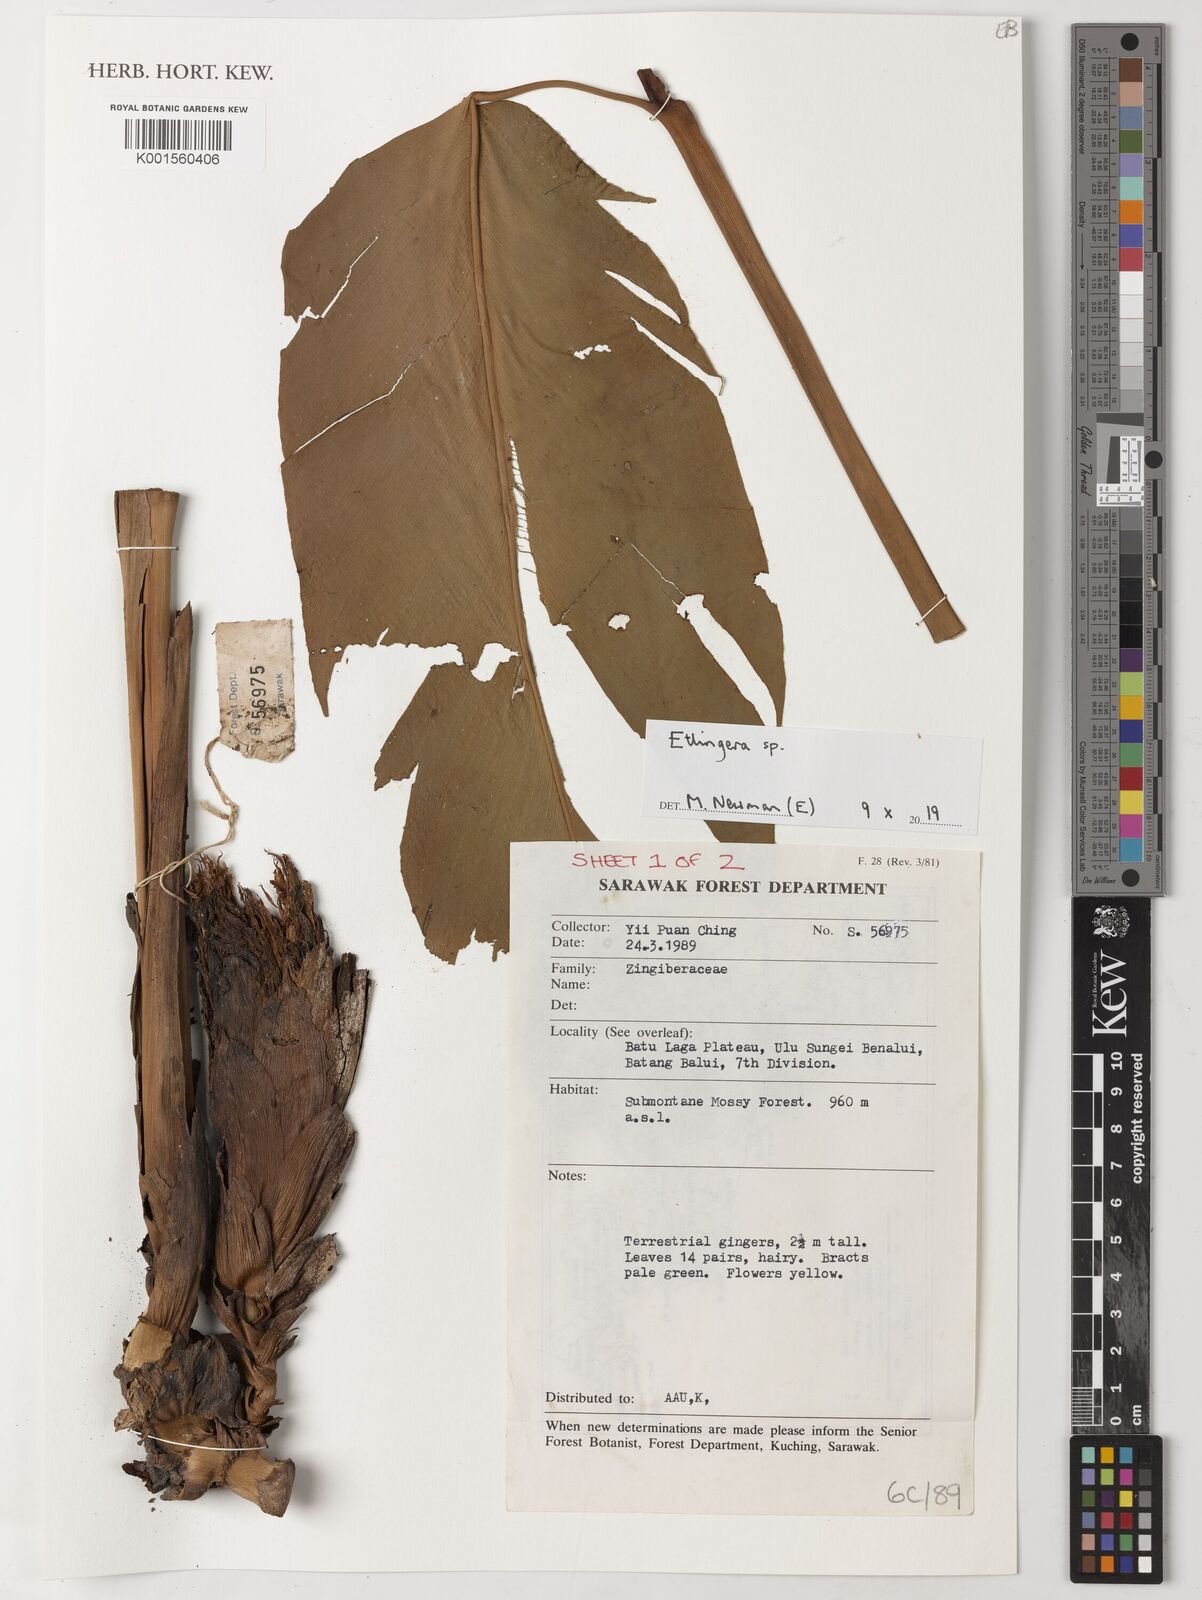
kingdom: Plantae
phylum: Tracheophyta
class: Liliopsida
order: Zingiberales
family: Zingiberaceae
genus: Etlingera
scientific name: Etlingera
